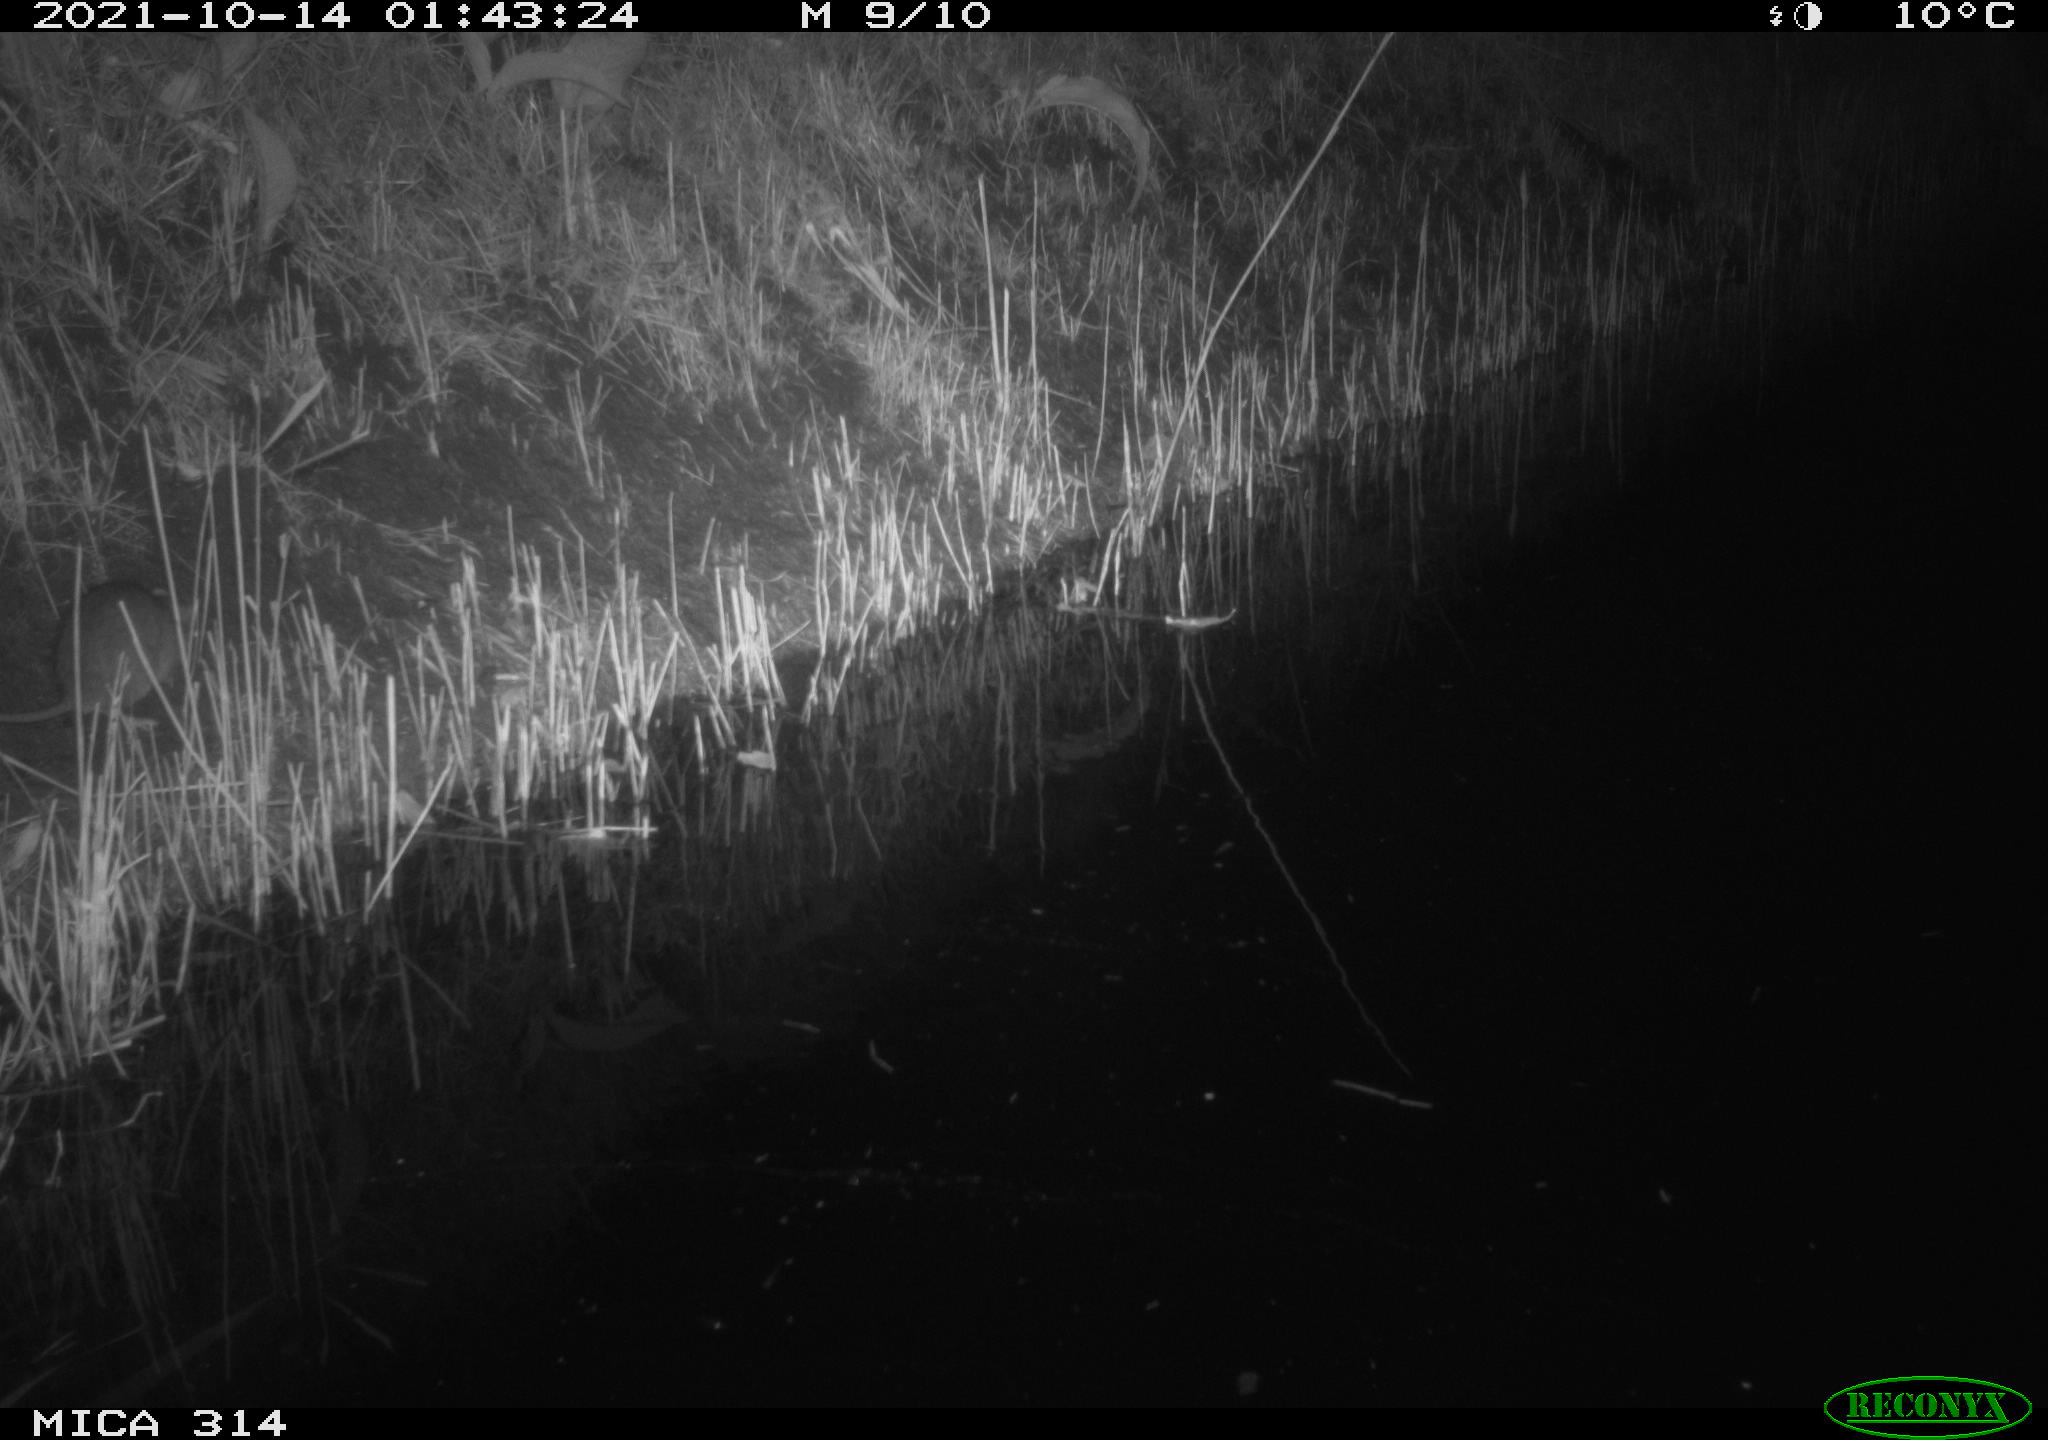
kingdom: Animalia
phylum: Chordata
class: Mammalia
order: Rodentia
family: Muridae
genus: Rattus
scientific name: Rattus norvegicus
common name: Brown rat
